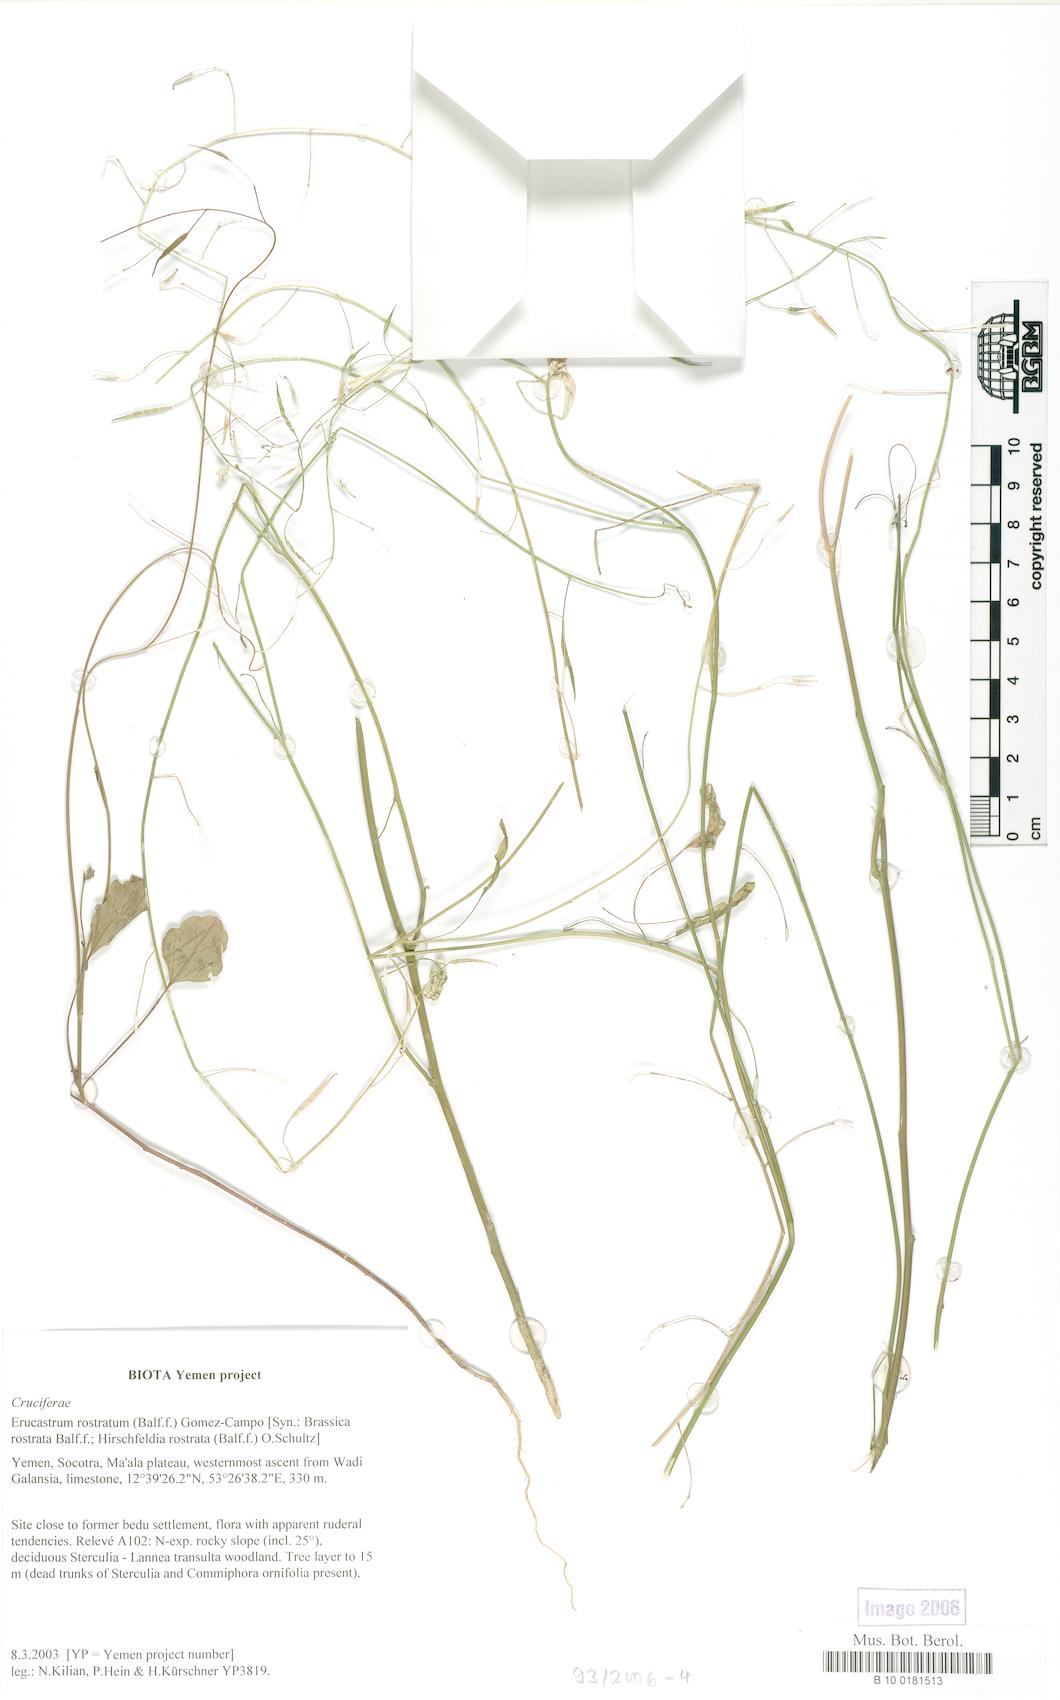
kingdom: Plantae
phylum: Tracheophyta
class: Magnoliopsida
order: Brassicales
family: Brassicaceae
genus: Erucastrum
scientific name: Erucastrum rostratum
